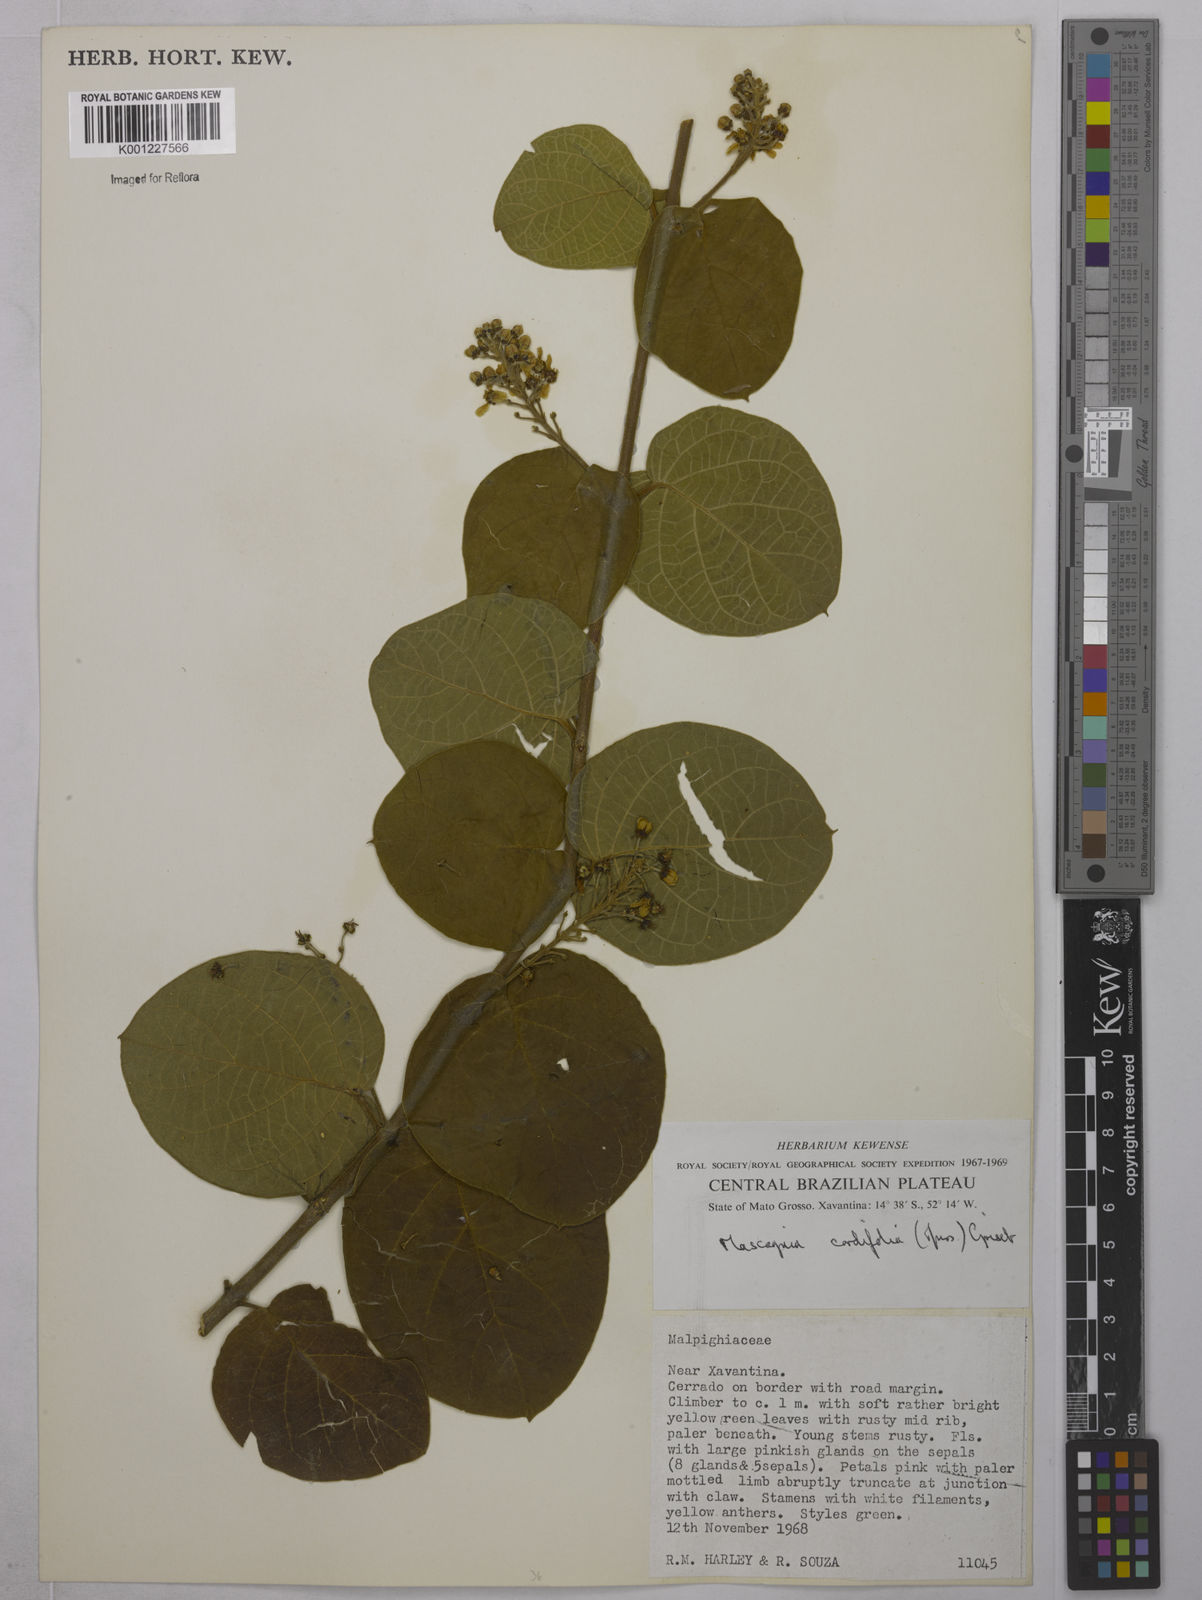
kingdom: Plantae
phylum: Tracheophyta
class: Magnoliopsida
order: Malpighiales
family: Malpighiaceae
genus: Mascagnia
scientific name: Mascagnia cordifolia
